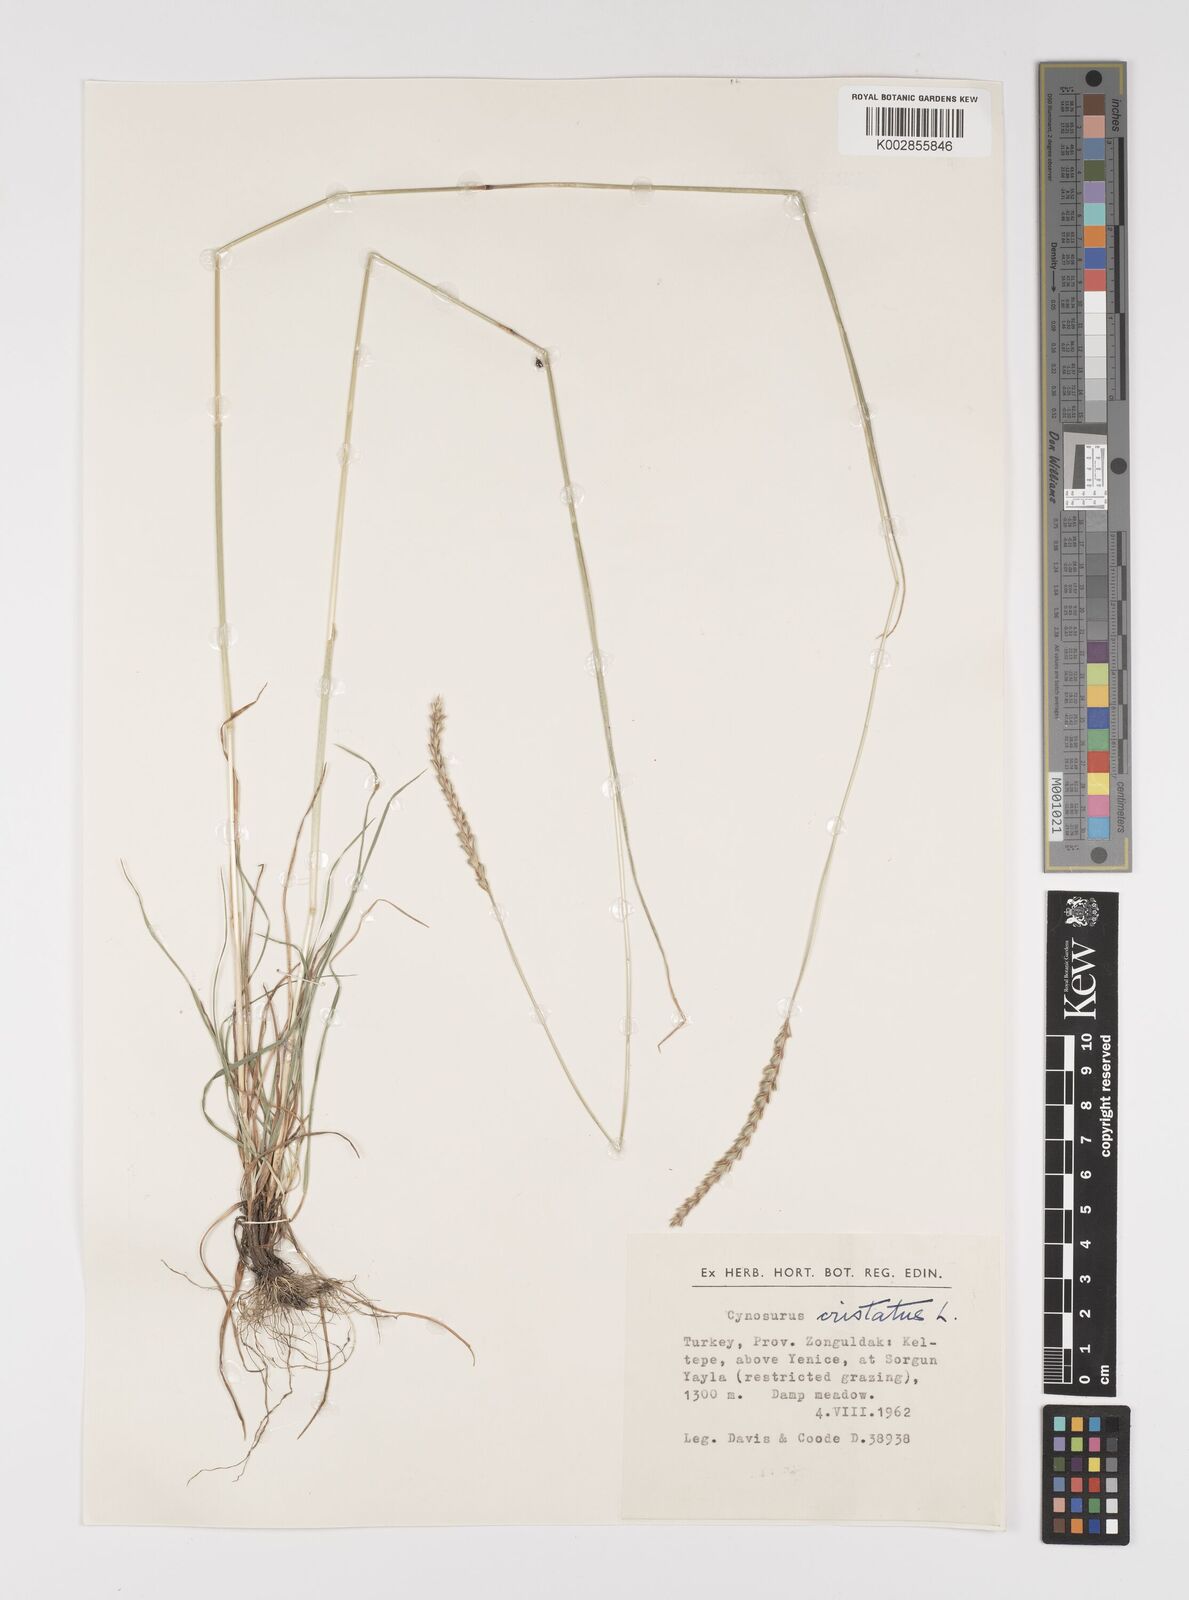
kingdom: Plantae
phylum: Tracheophyta
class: Liliopsida
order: Poales
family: Poaceae
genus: Cynosurus
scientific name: Cynosurus cristatus
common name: Crested dog's-tail
